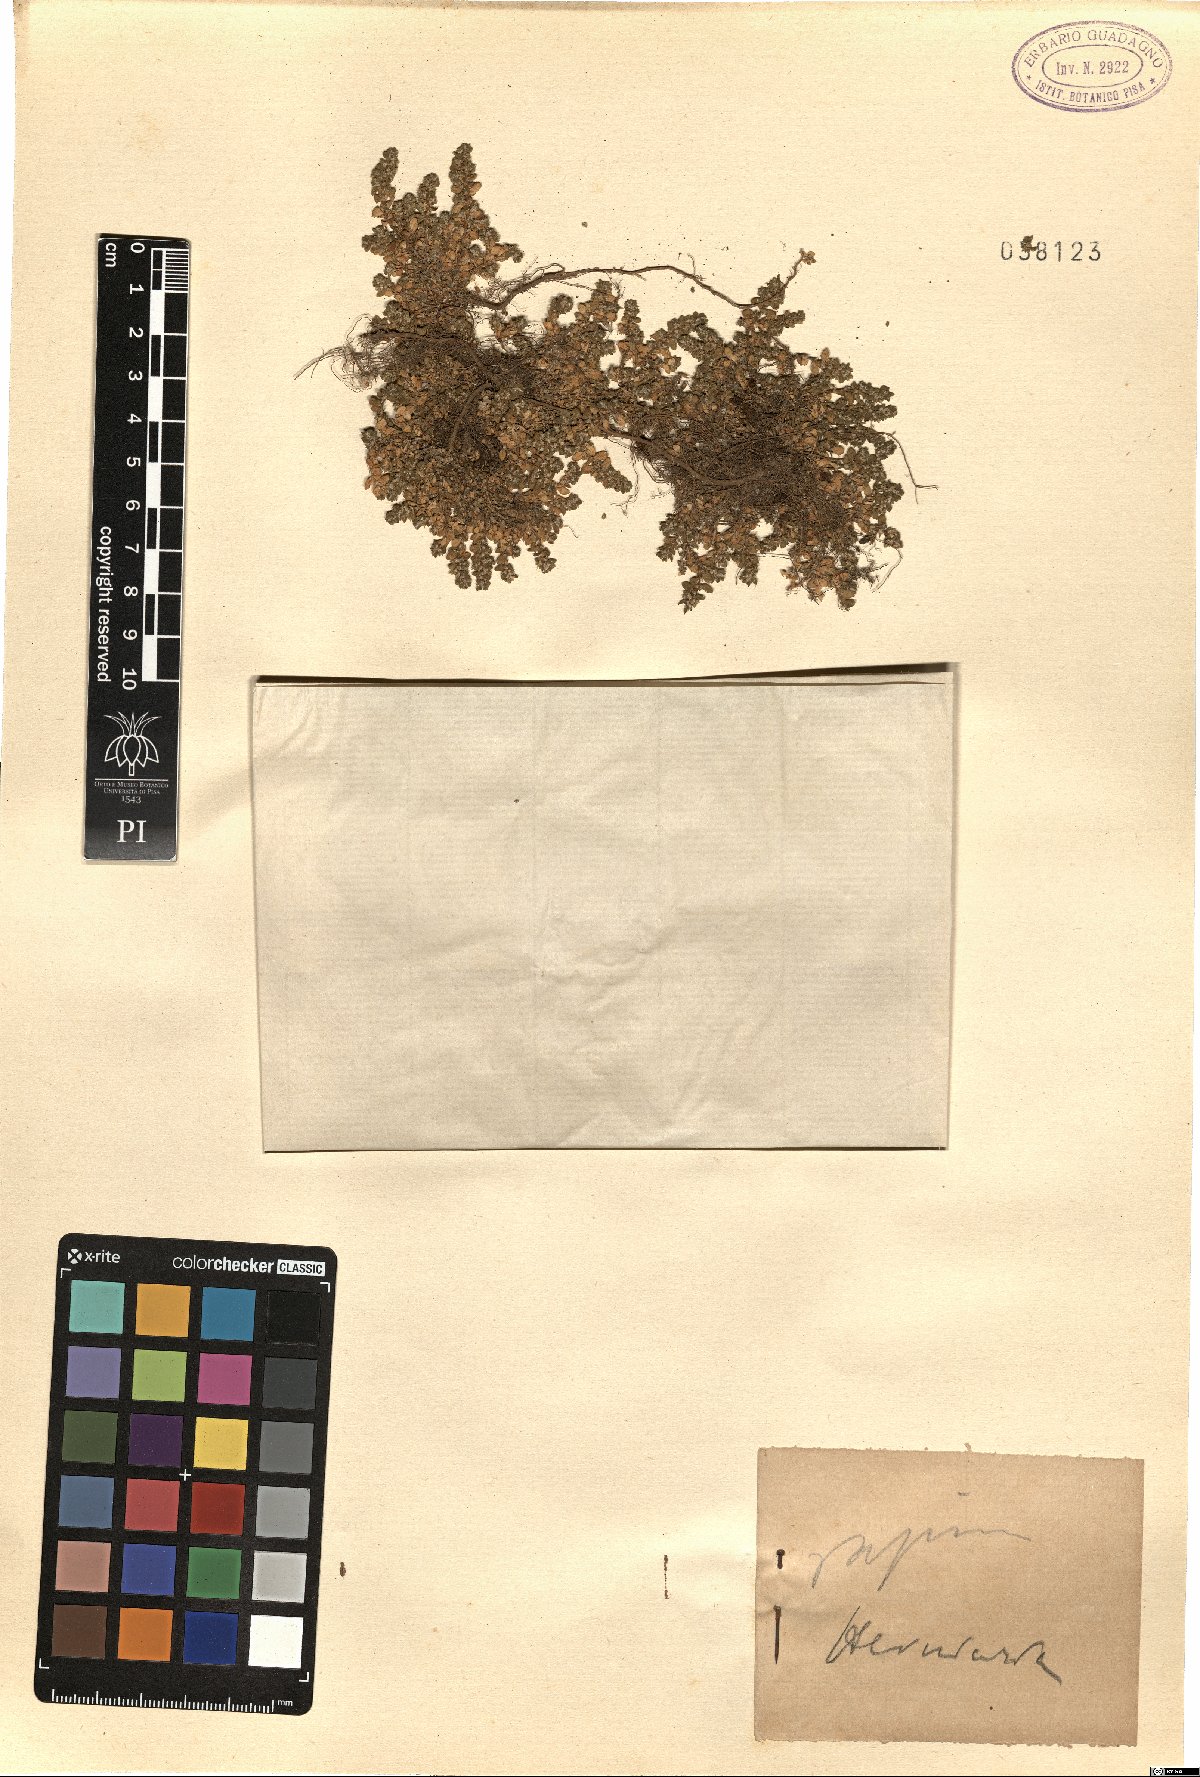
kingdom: Plantae
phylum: Tracheophyta
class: Magnoliopsida
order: Caryophyllales
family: Caryophyllaceae
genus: Herniaria
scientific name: Herniaria
